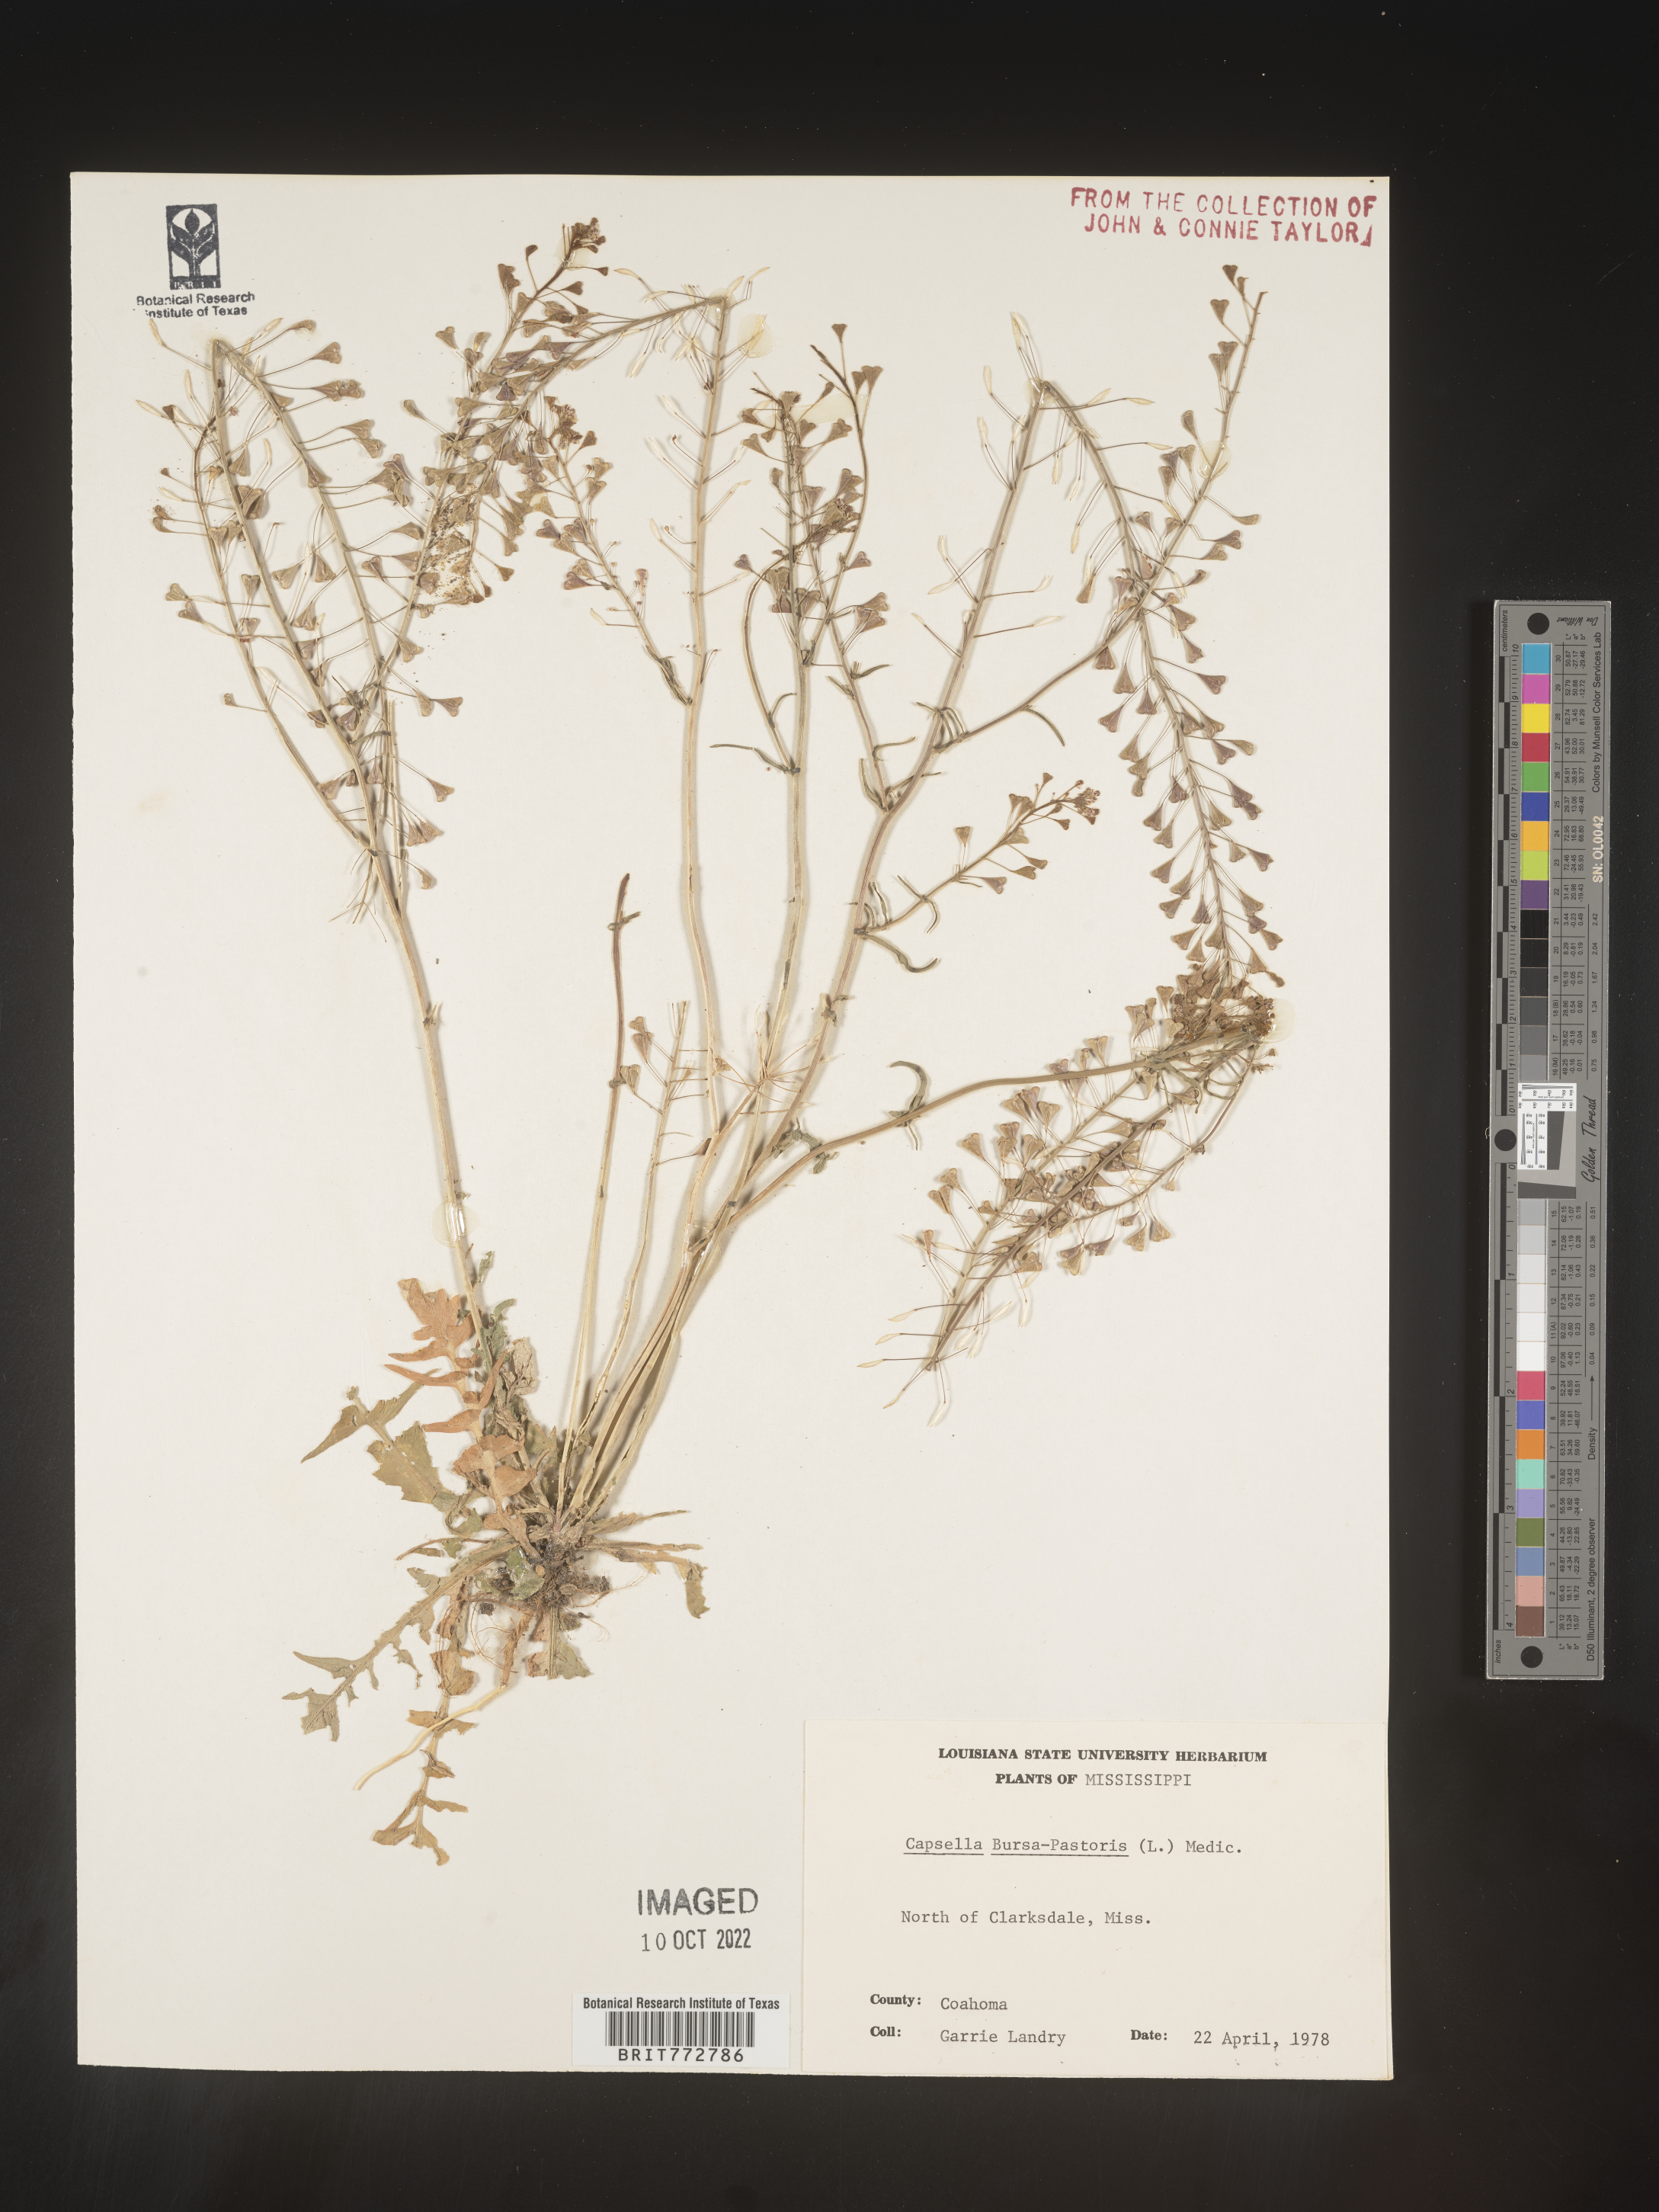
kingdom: Plantae
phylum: Tracheophyta
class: Magnoliopsida
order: Brassicales
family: Brassicaceae
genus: Capsella
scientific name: Capsella bursa-pastoris
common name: Shepherd's purse
